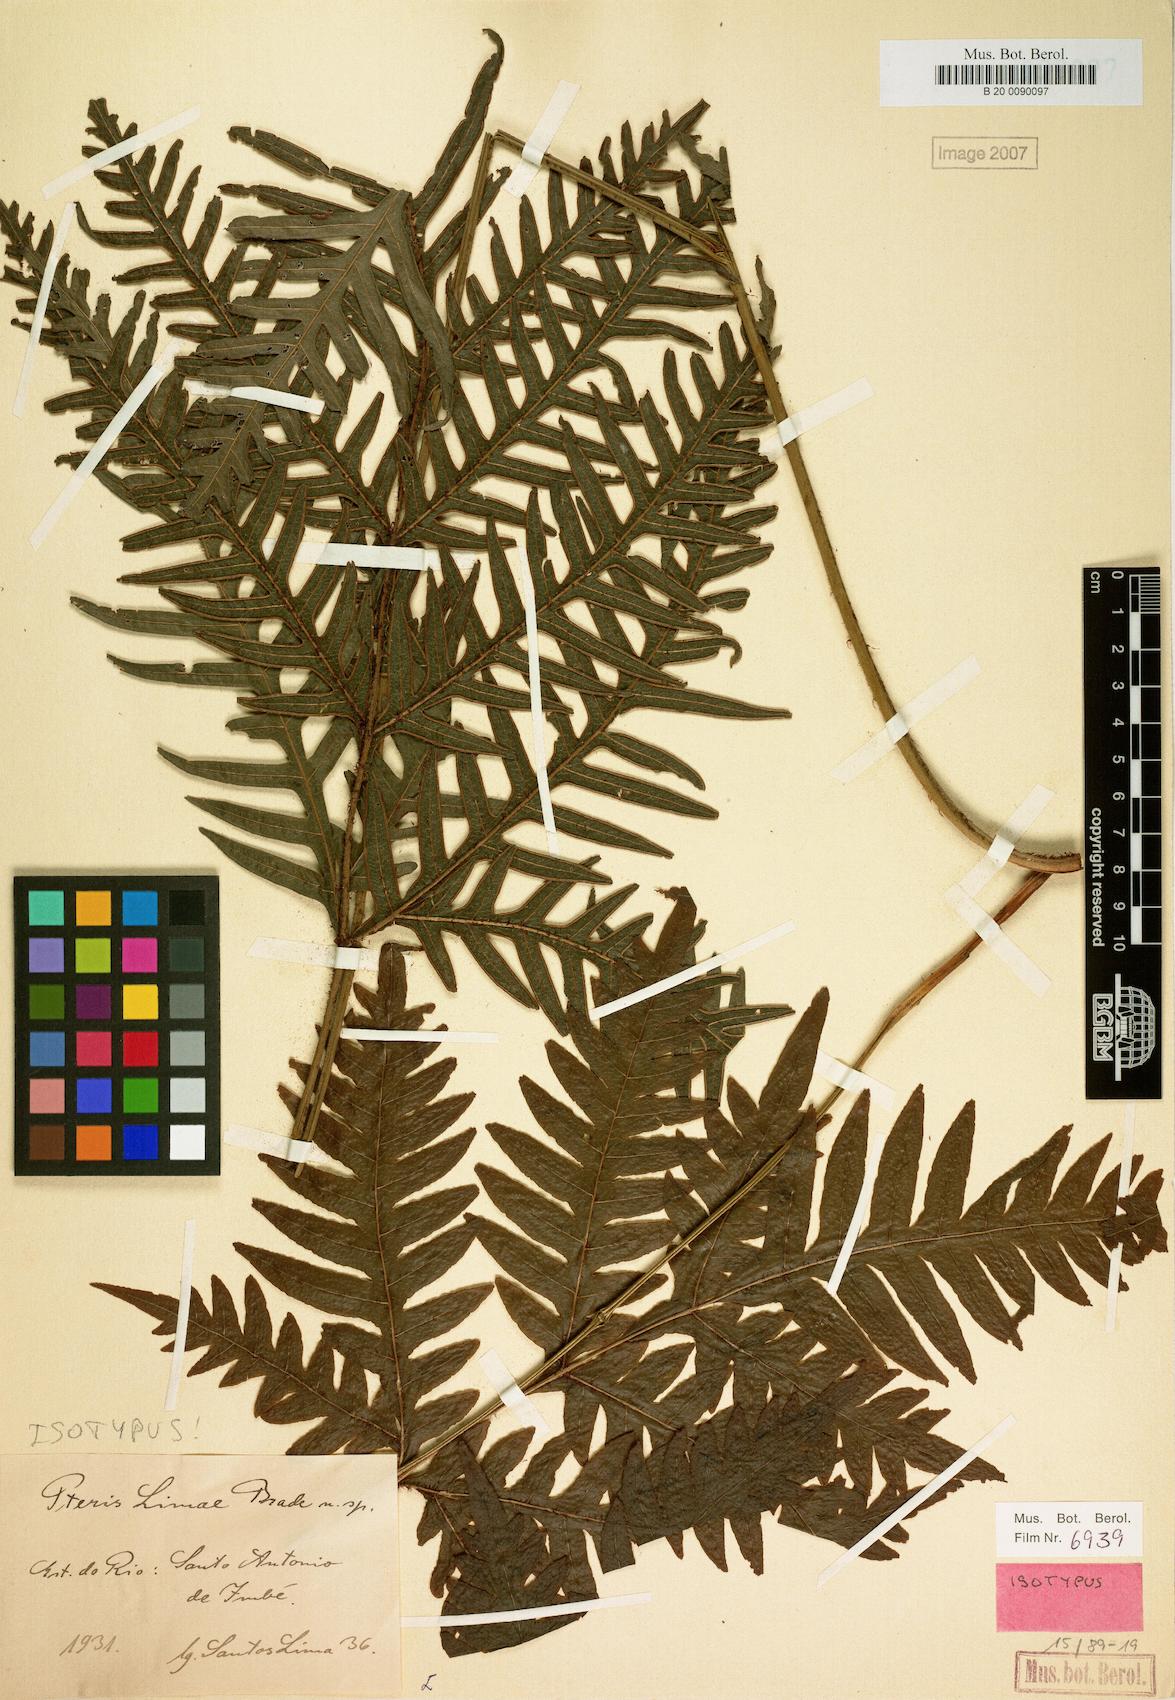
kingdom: Plantae
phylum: Tracheophyta
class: Polypodiopsida
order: Polypodiales
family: Pteridaceae
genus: Pteris
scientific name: Pteris limae
